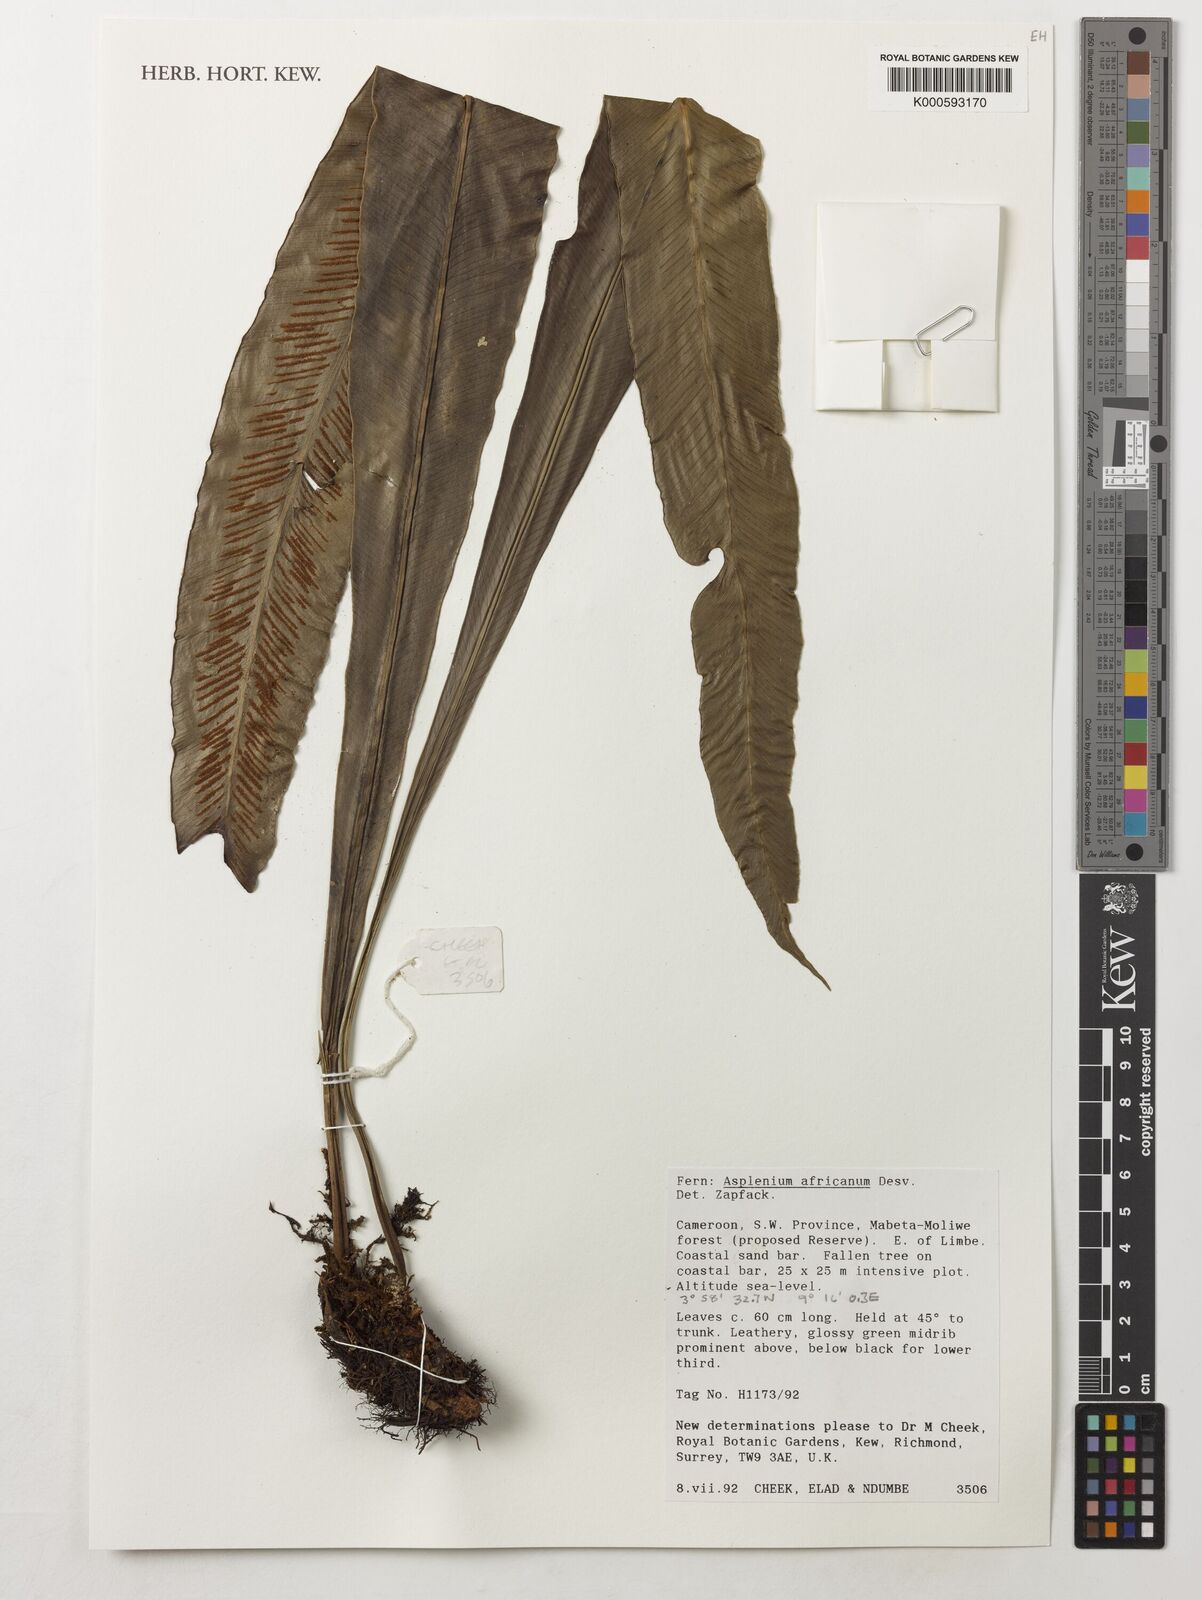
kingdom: Plantae
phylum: Tracheophyta
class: Polypodiopsida
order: Polypodiales
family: Aspleniaceae
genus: Asplenium
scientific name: Asplenium africanum
